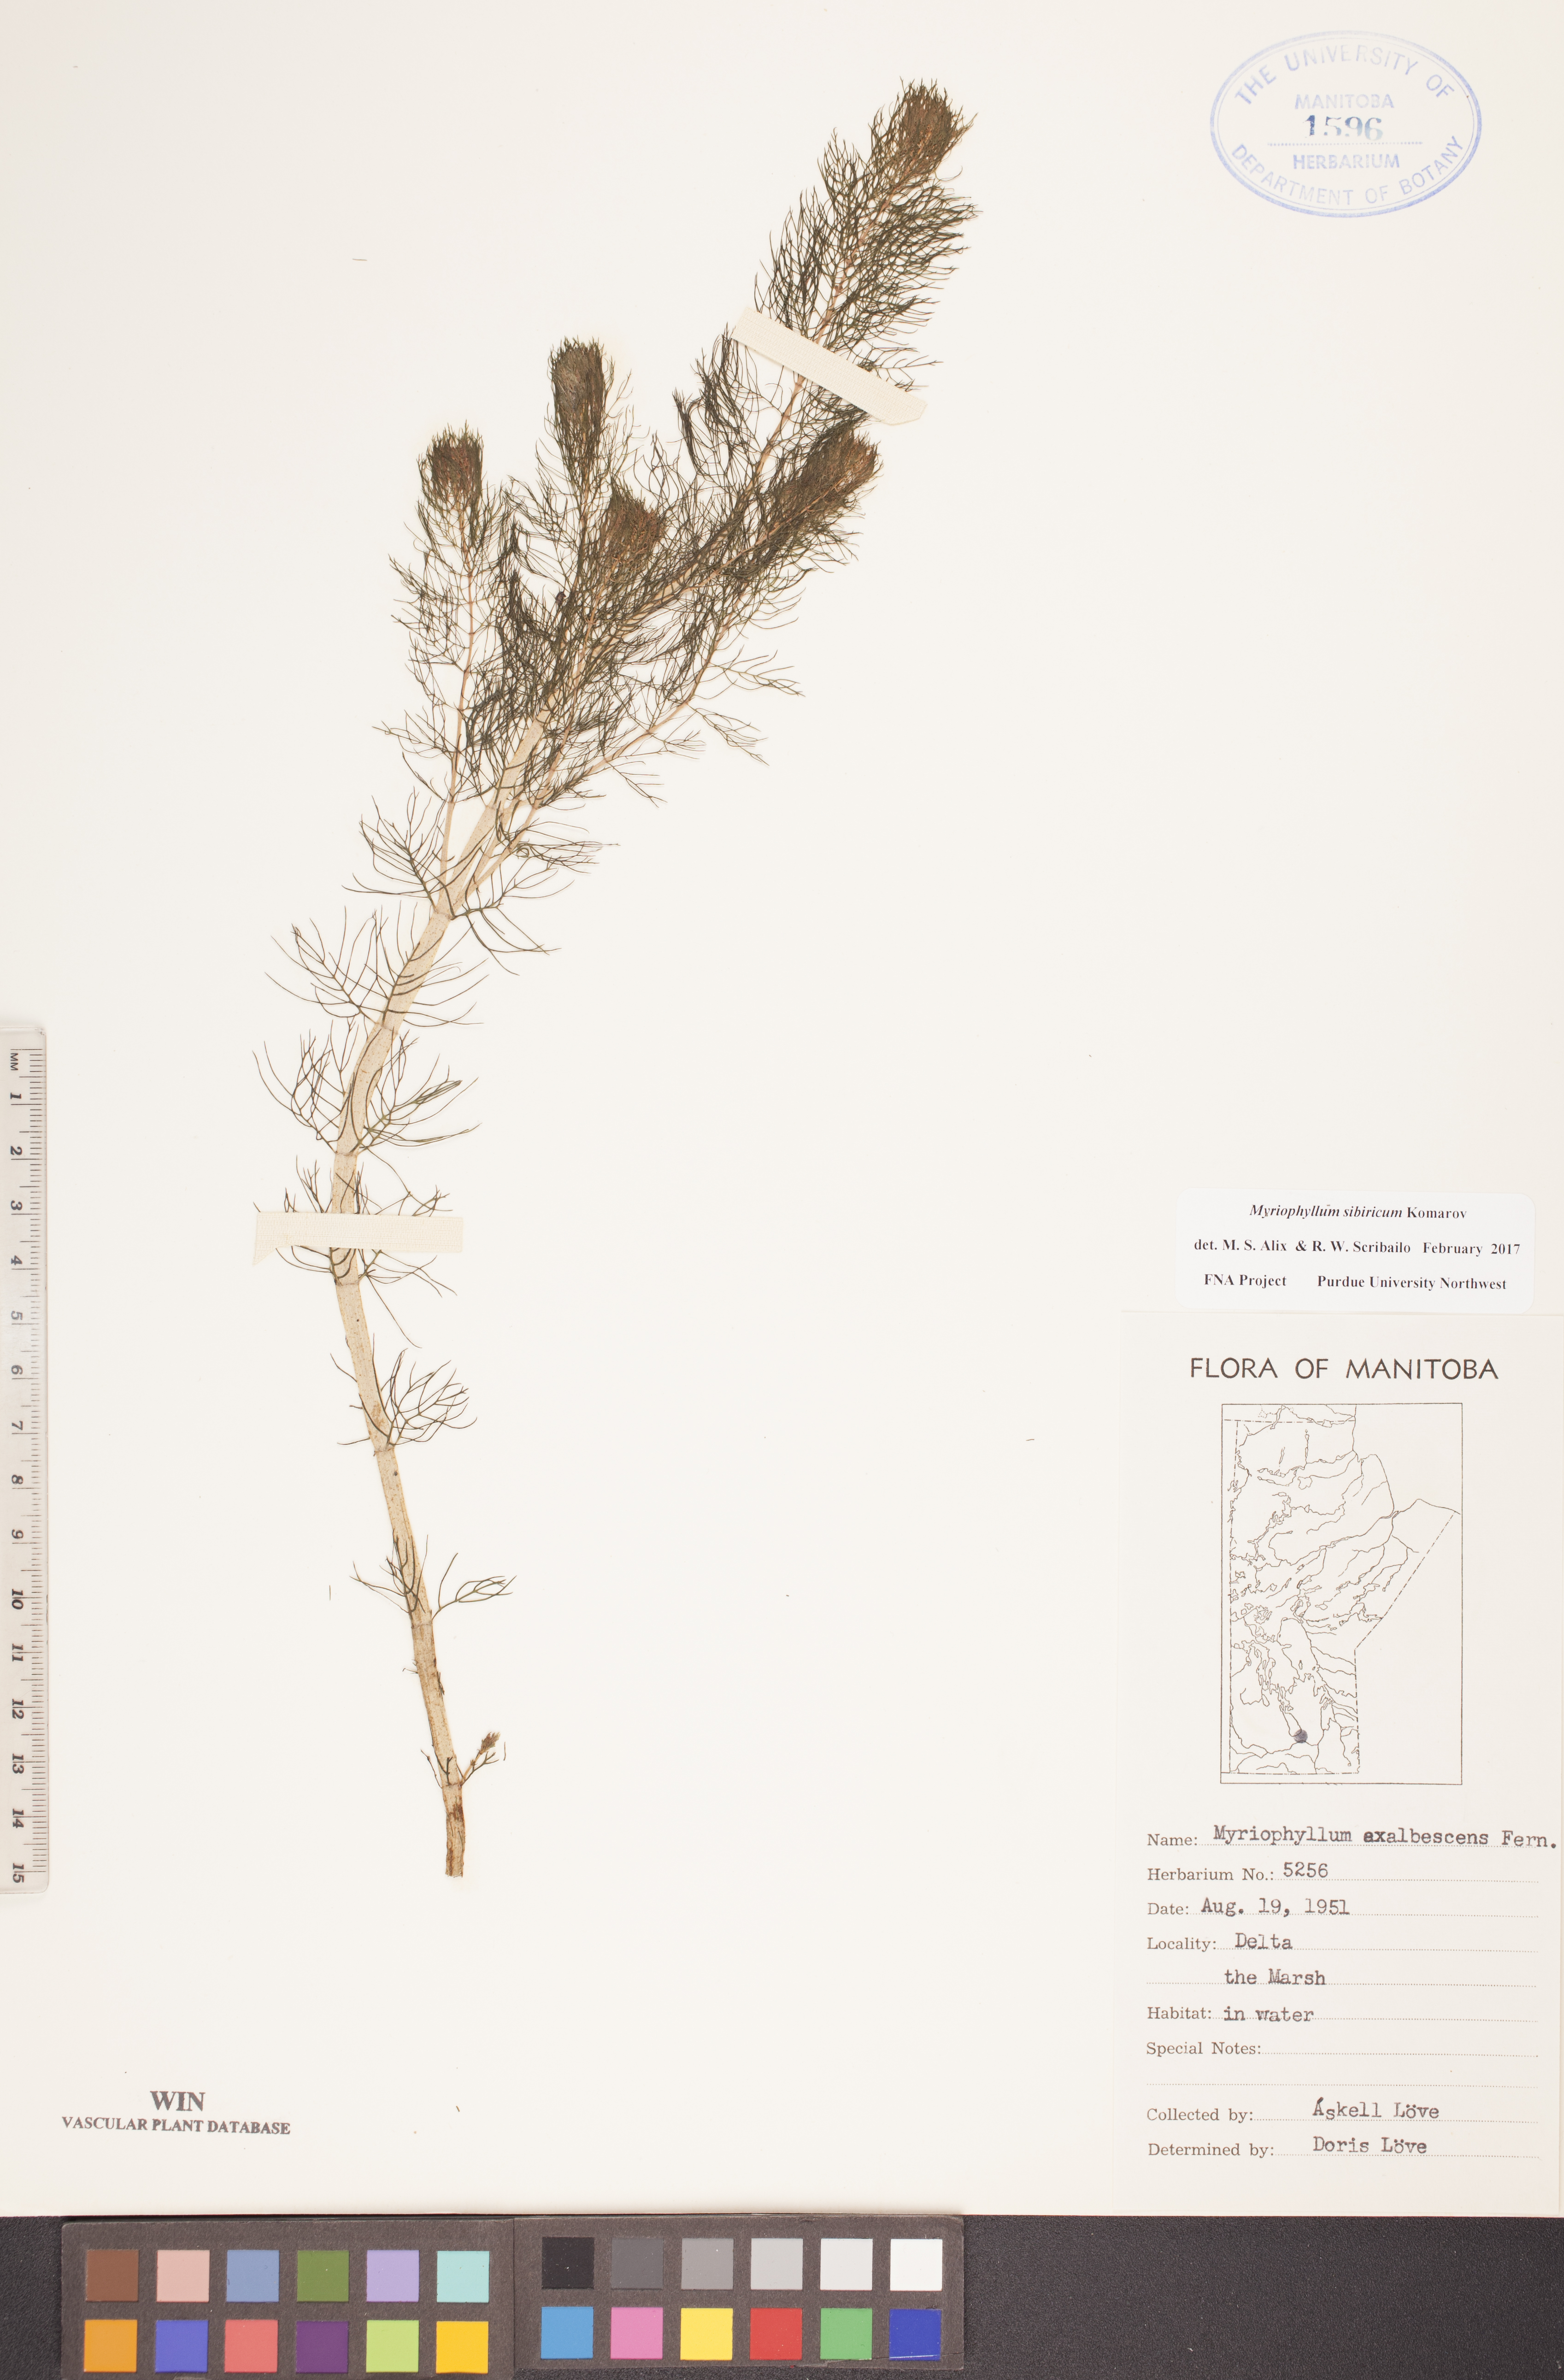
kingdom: Plantae
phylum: Tracheophyta
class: Magnoliopsida
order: Saxifragales
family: Haloragaceae
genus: Myriophyllum
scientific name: Myriophyllum sibiricum
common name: Siberian water-milfoil
